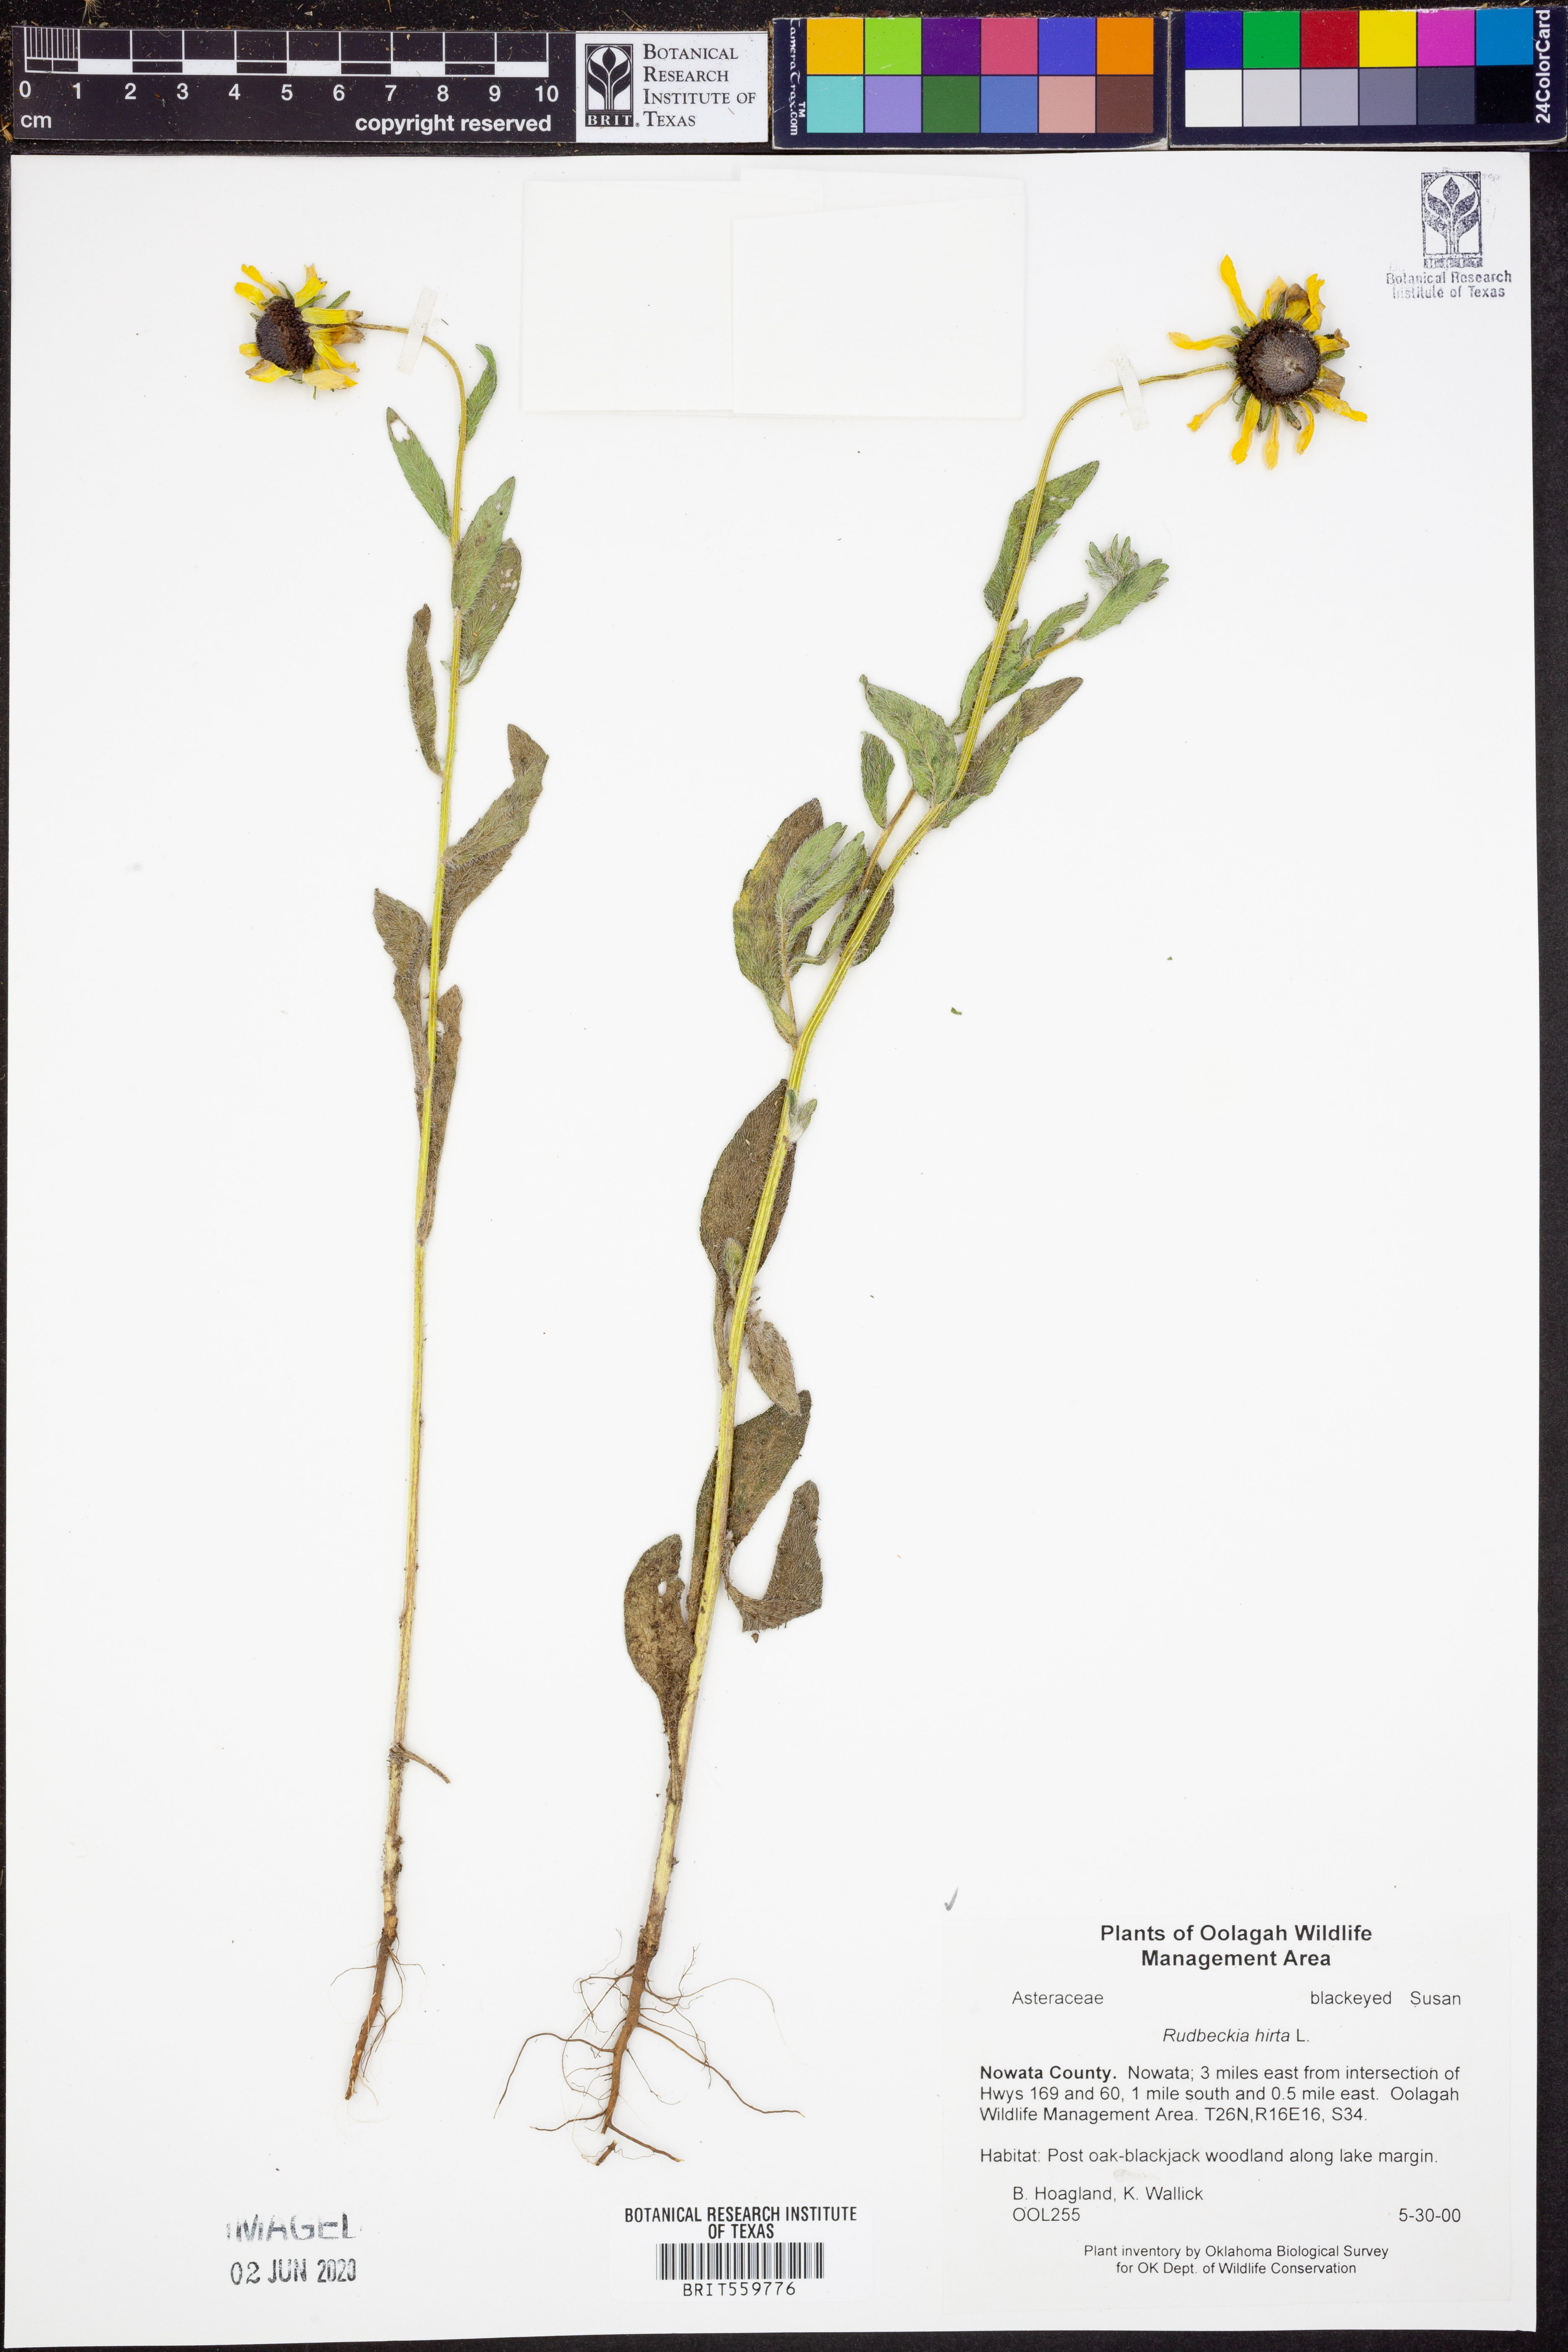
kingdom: Plantae
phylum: Tracheophyta
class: Magnoliopsida
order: Asterales
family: Asteraceae
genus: Rudbeckia
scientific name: Rudbeckia hirta
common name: Black-eyed-susan
